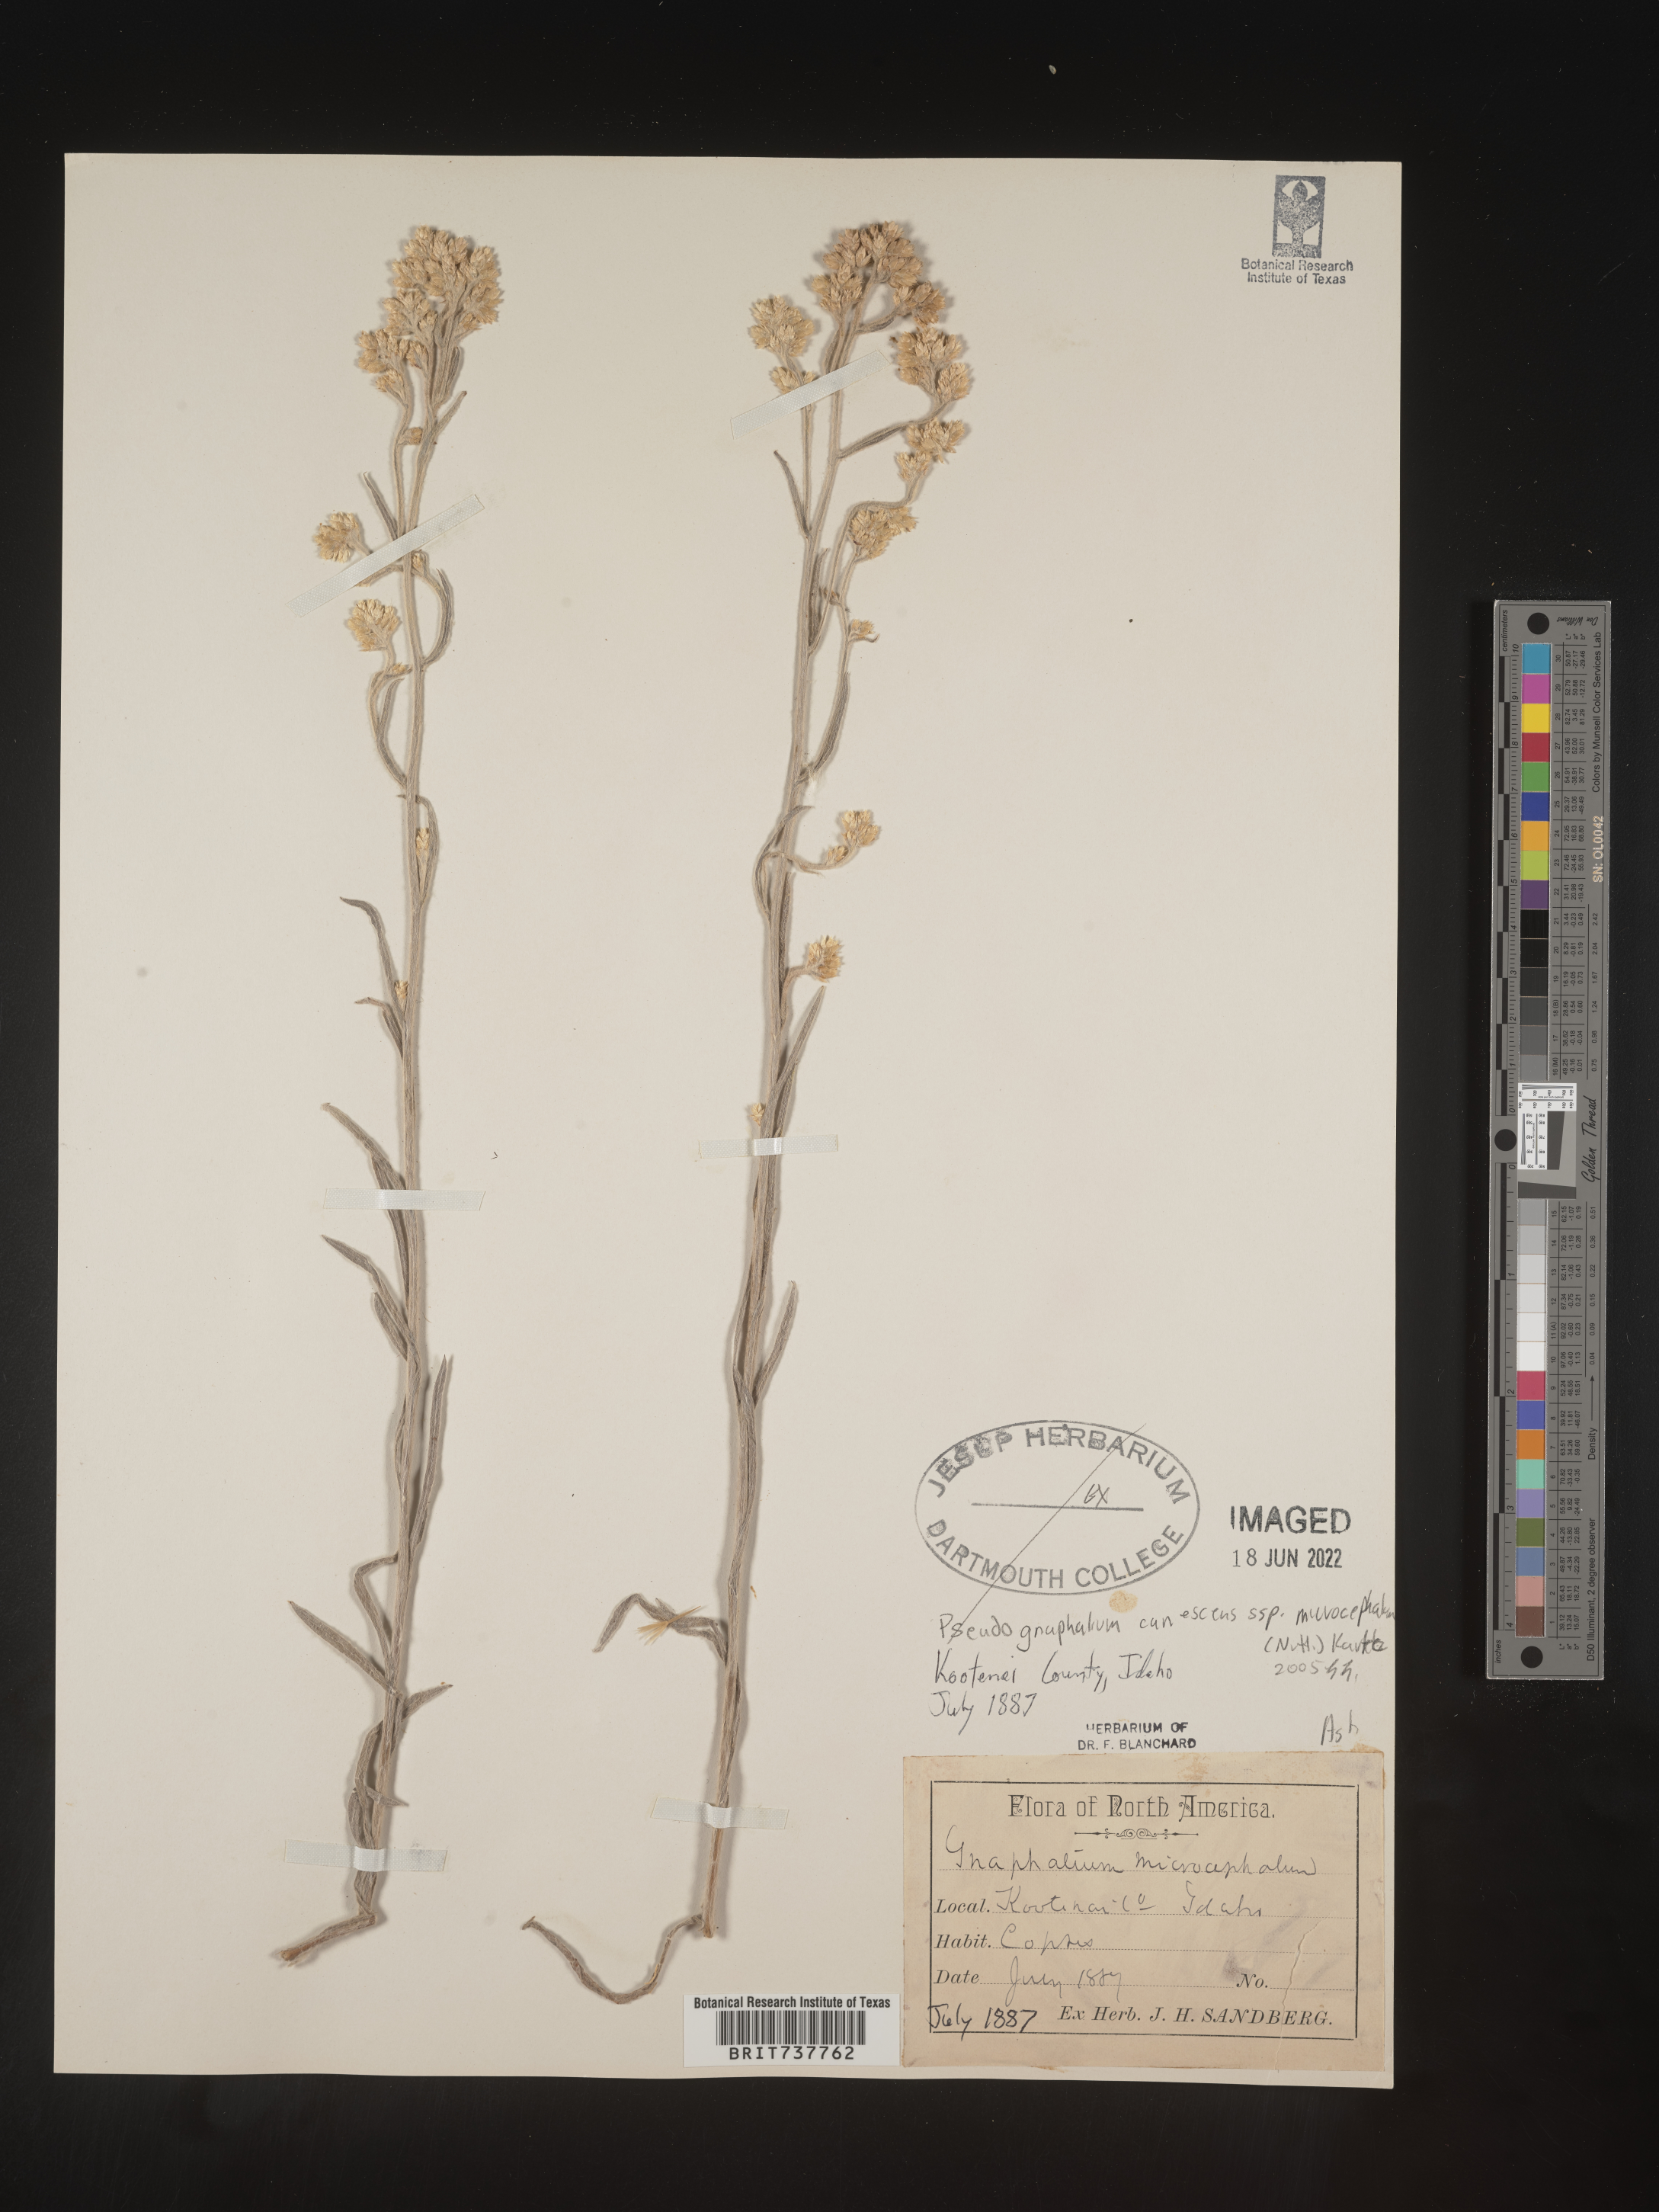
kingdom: Plantae
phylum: Tracheophyta
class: Magnoliopsida
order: Asterales
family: Asteraceae
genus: Pseudognaphalium
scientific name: Pseudognaphalium thermale
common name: Northwestern rabbit-tobacco
